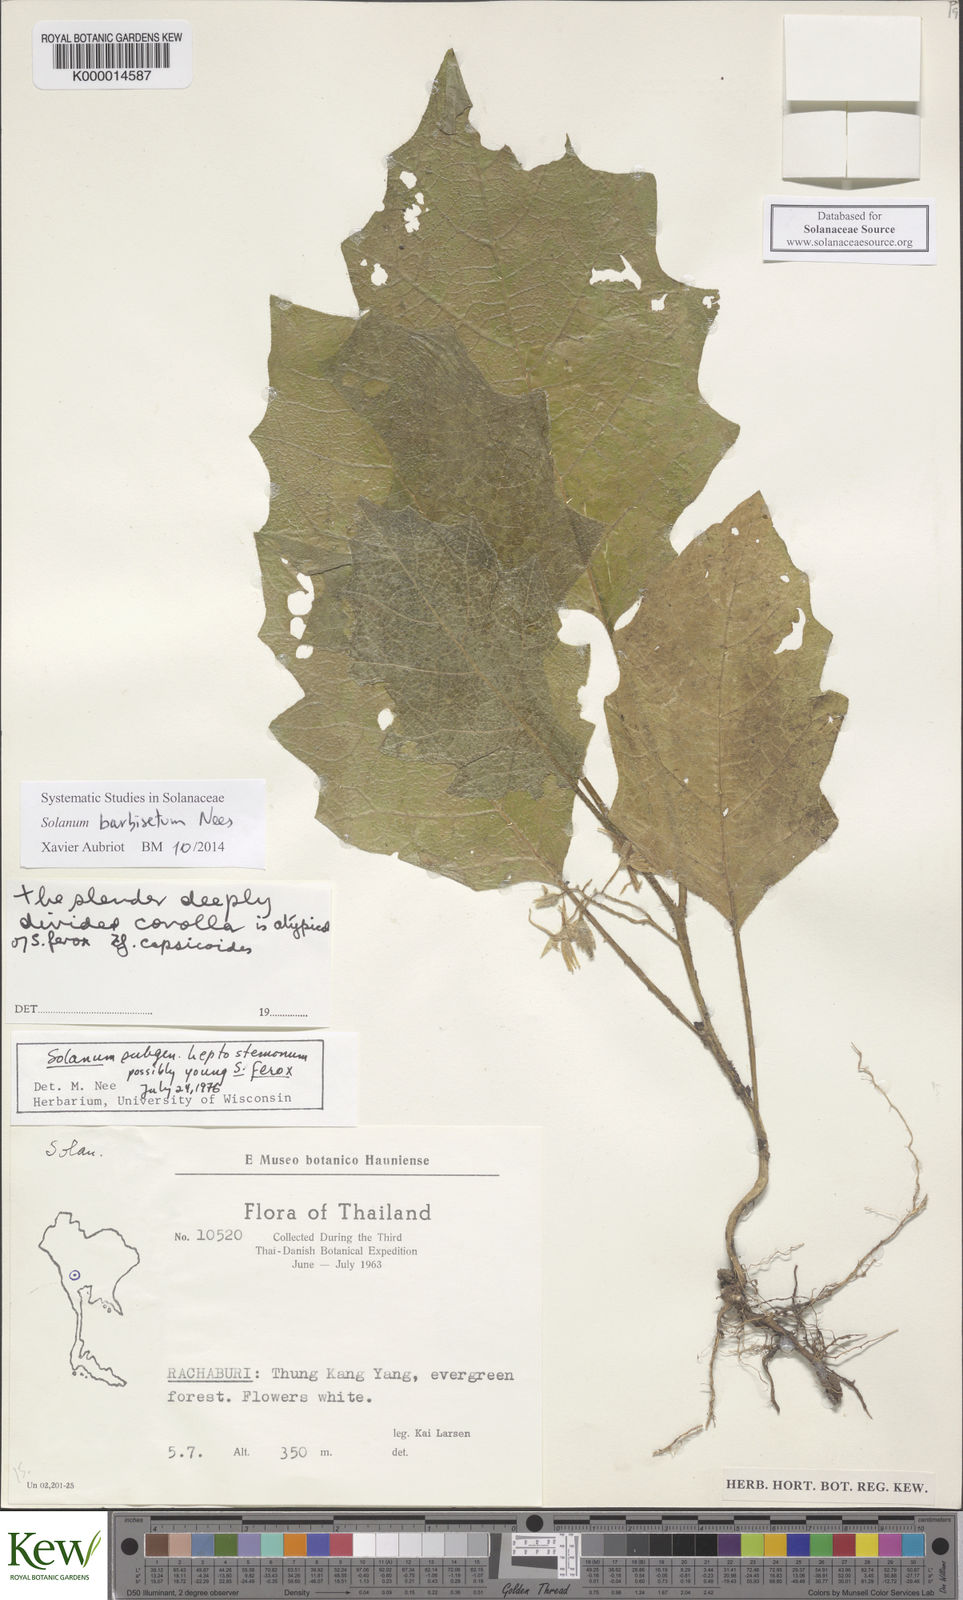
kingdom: Plantae
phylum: Tracheophyta
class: Magnoliopsida
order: Solanales
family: Solanaceae
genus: Solanum
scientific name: Solanum barbisetum
